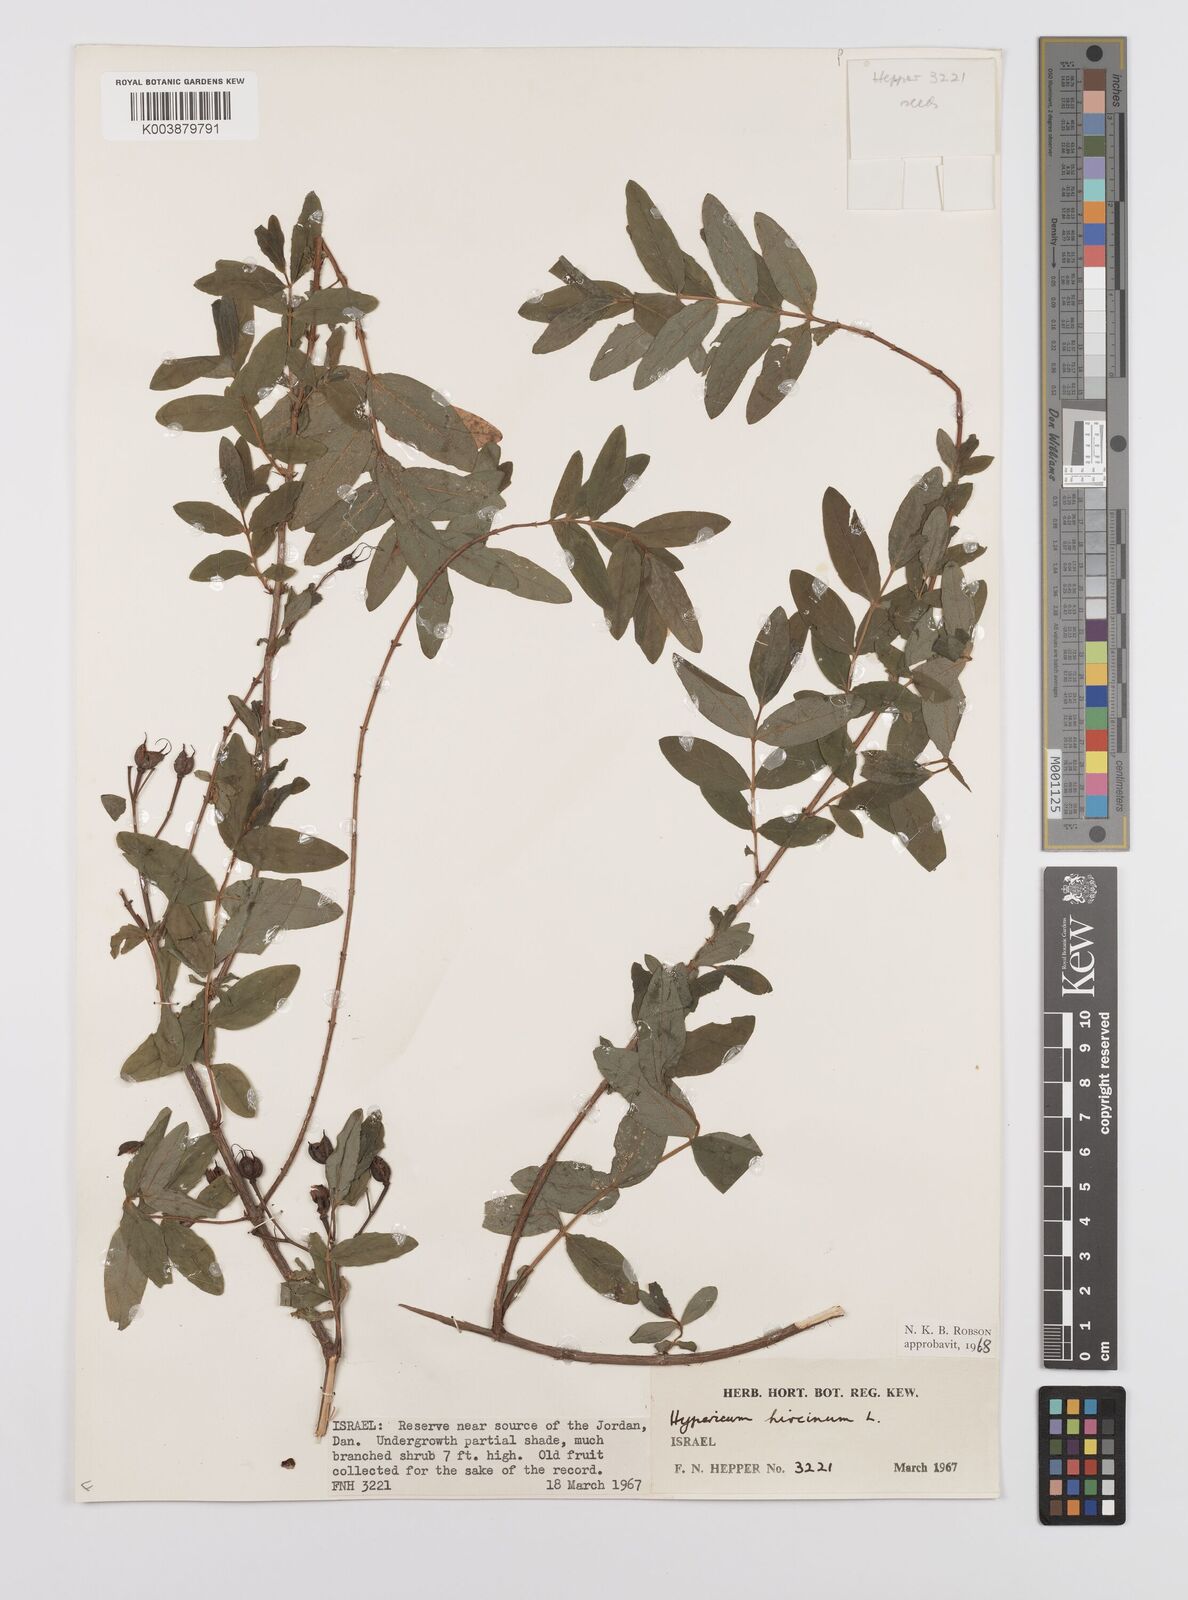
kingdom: Plantae
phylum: Tracheophyta
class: Magnoliopsida
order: Malpighiales
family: Hypericaceae
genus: Hypericum
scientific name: Hypericum hircinum
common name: Stinking tutsan
